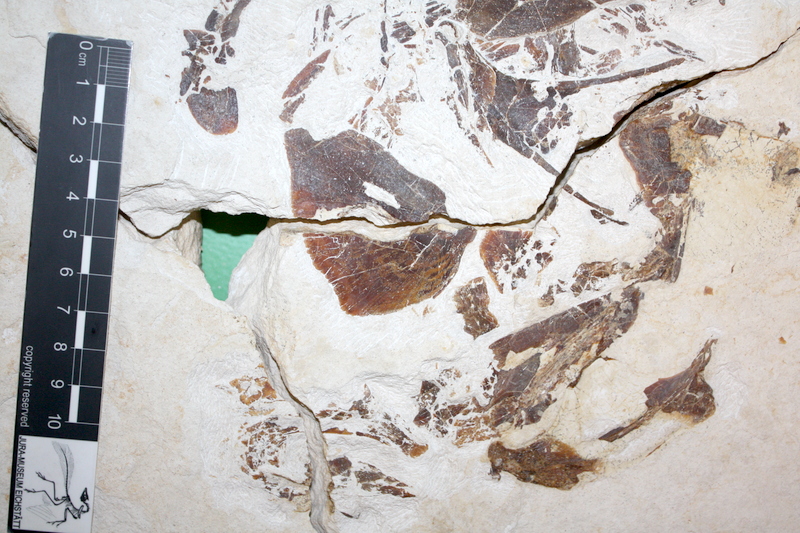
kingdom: Animalia
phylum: Chordata
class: Coelacanthi
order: Coelacanthiformes
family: Coelacanthidae
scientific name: Coelacanthidae
